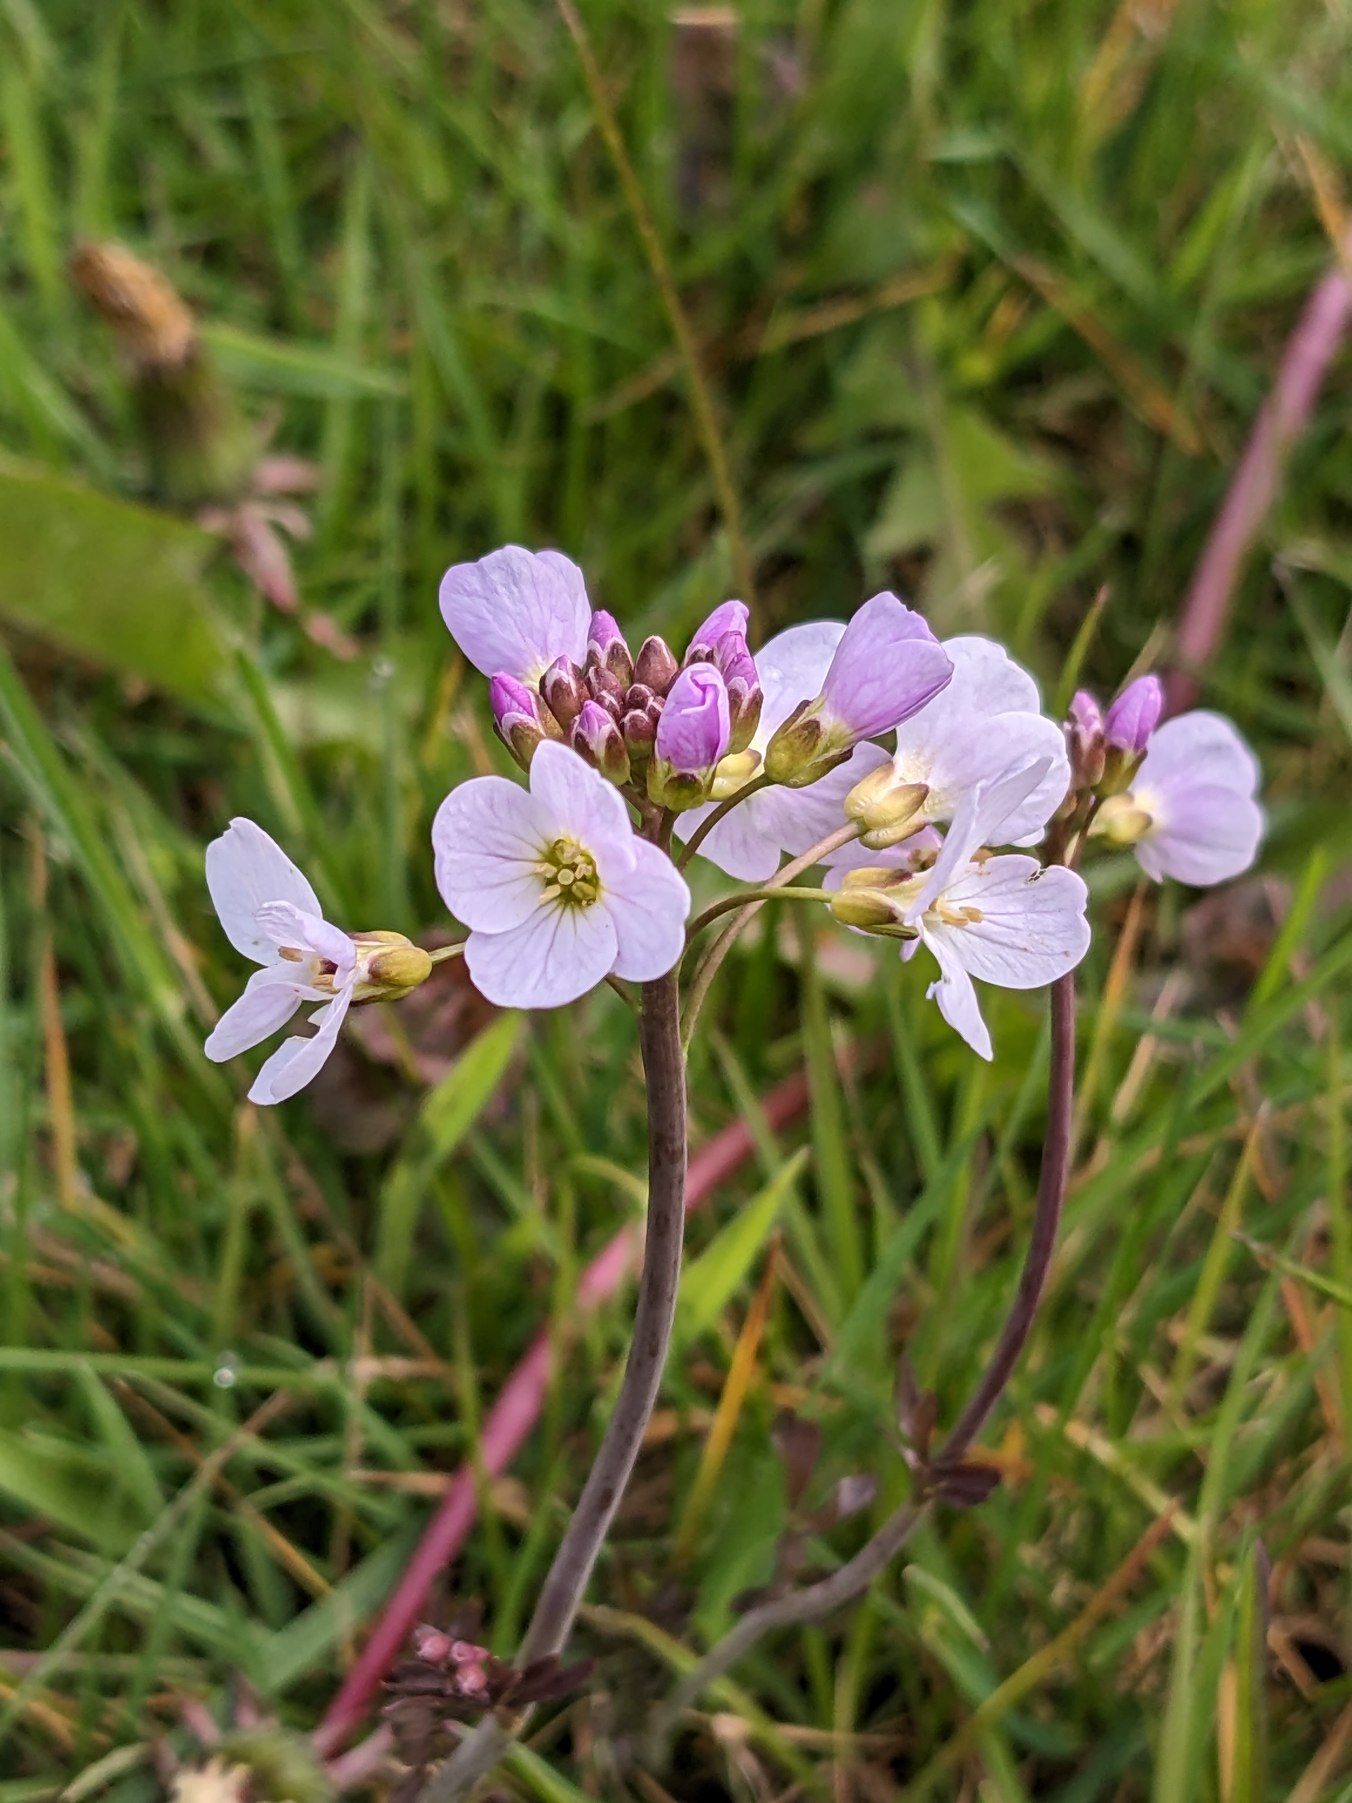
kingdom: Plantae
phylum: Tracheophyta
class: Magnoliopsida
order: Brassicales
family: Brassicaceae
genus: Cardamine
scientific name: Cardamine pratensis
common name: Engkarse
